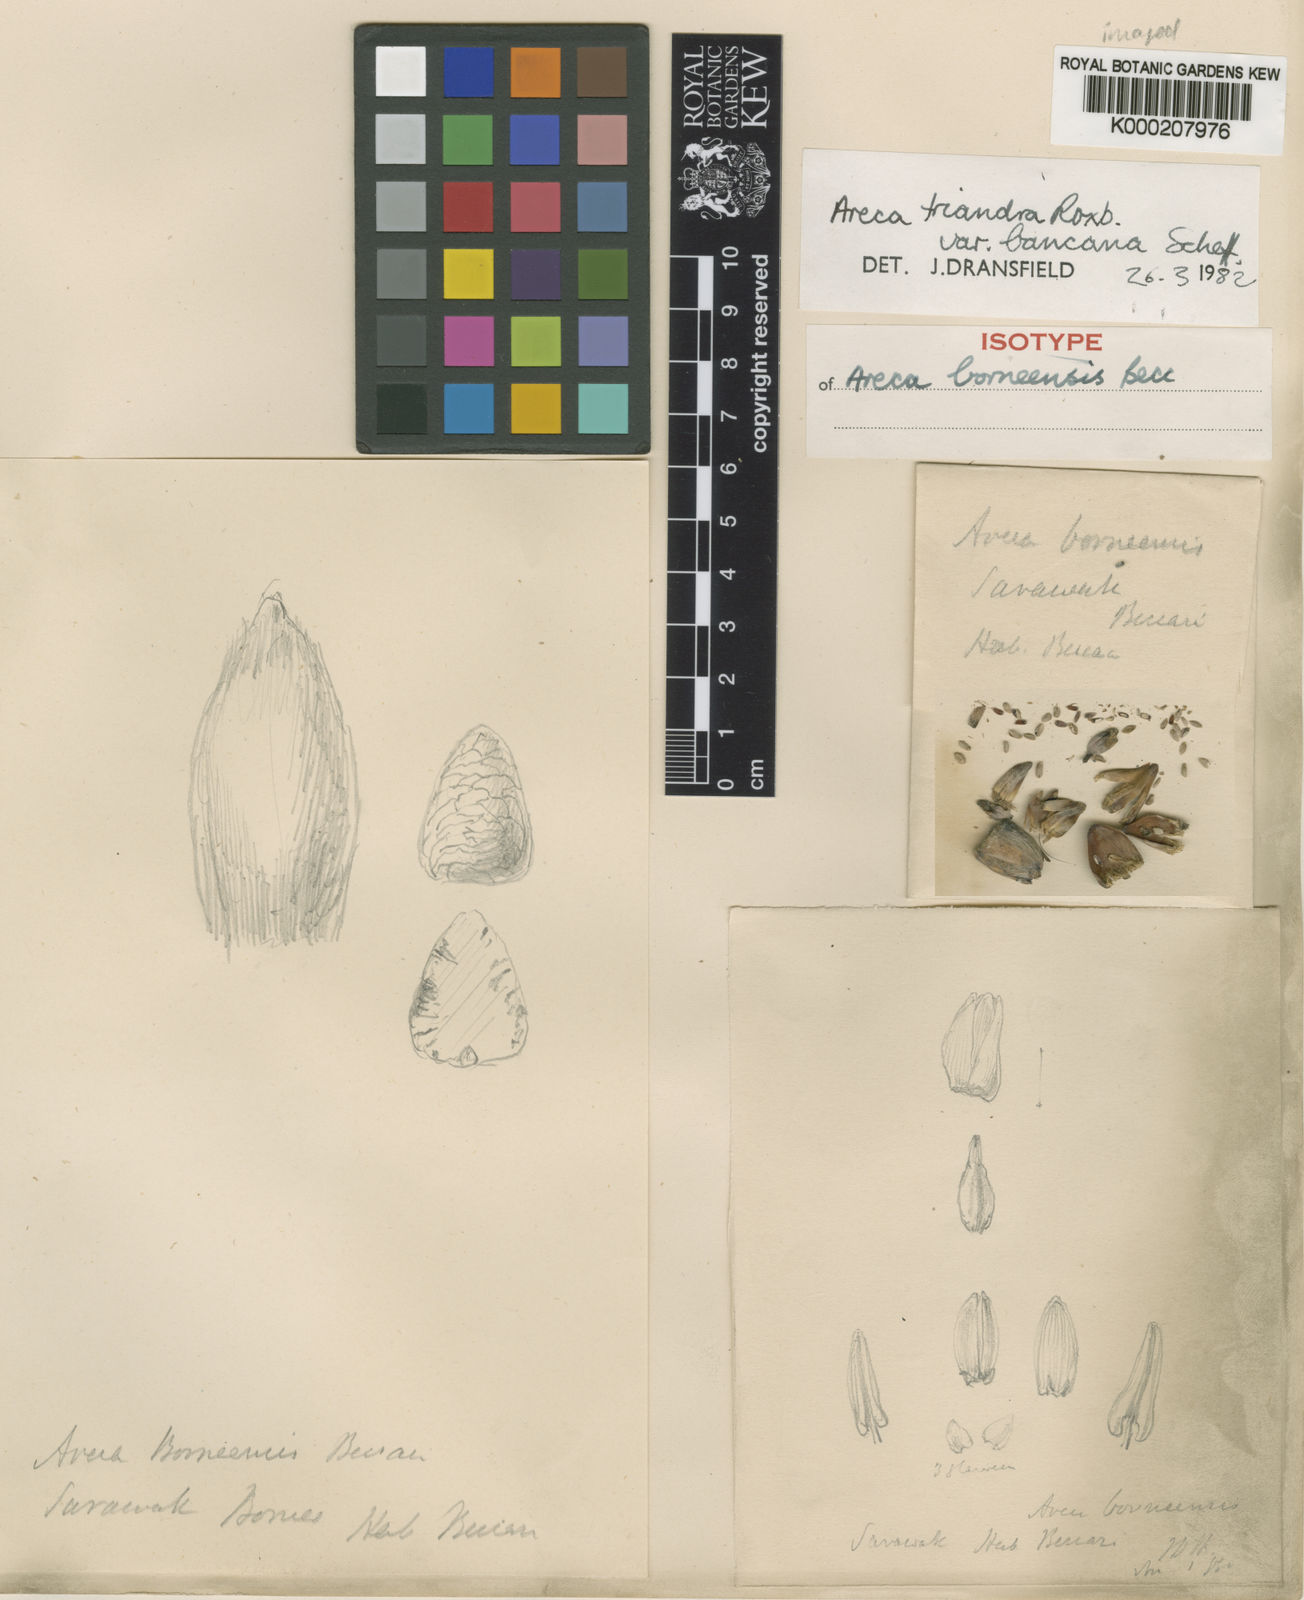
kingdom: Plantae
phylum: Tracheophyta
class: Liliopsida
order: Arecales
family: Arecaceae
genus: Areca
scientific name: Areca triandra
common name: Australian areca palm
